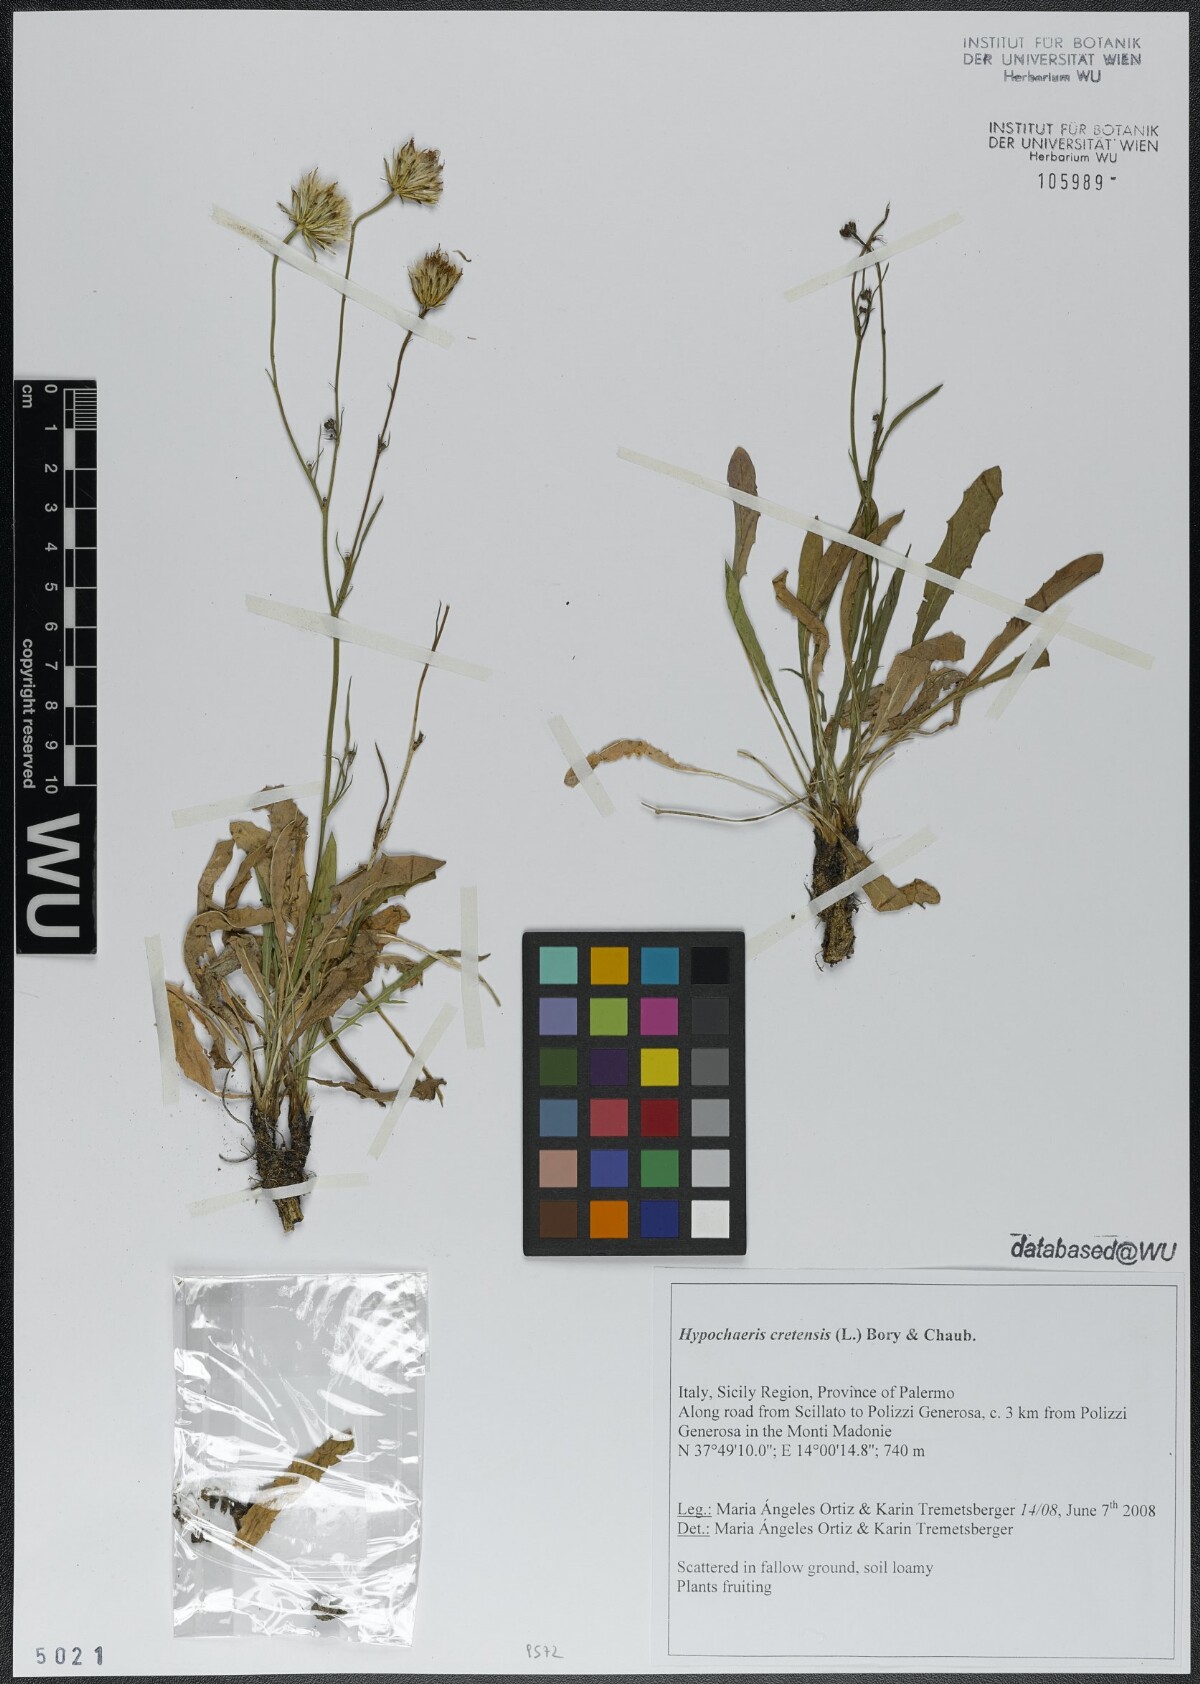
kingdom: Plantae
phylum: Tracheophyta
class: Magnoliopsida
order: Asterales
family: Asteraceae
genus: Hypochaeris
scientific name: Hypochaeris cretensis
